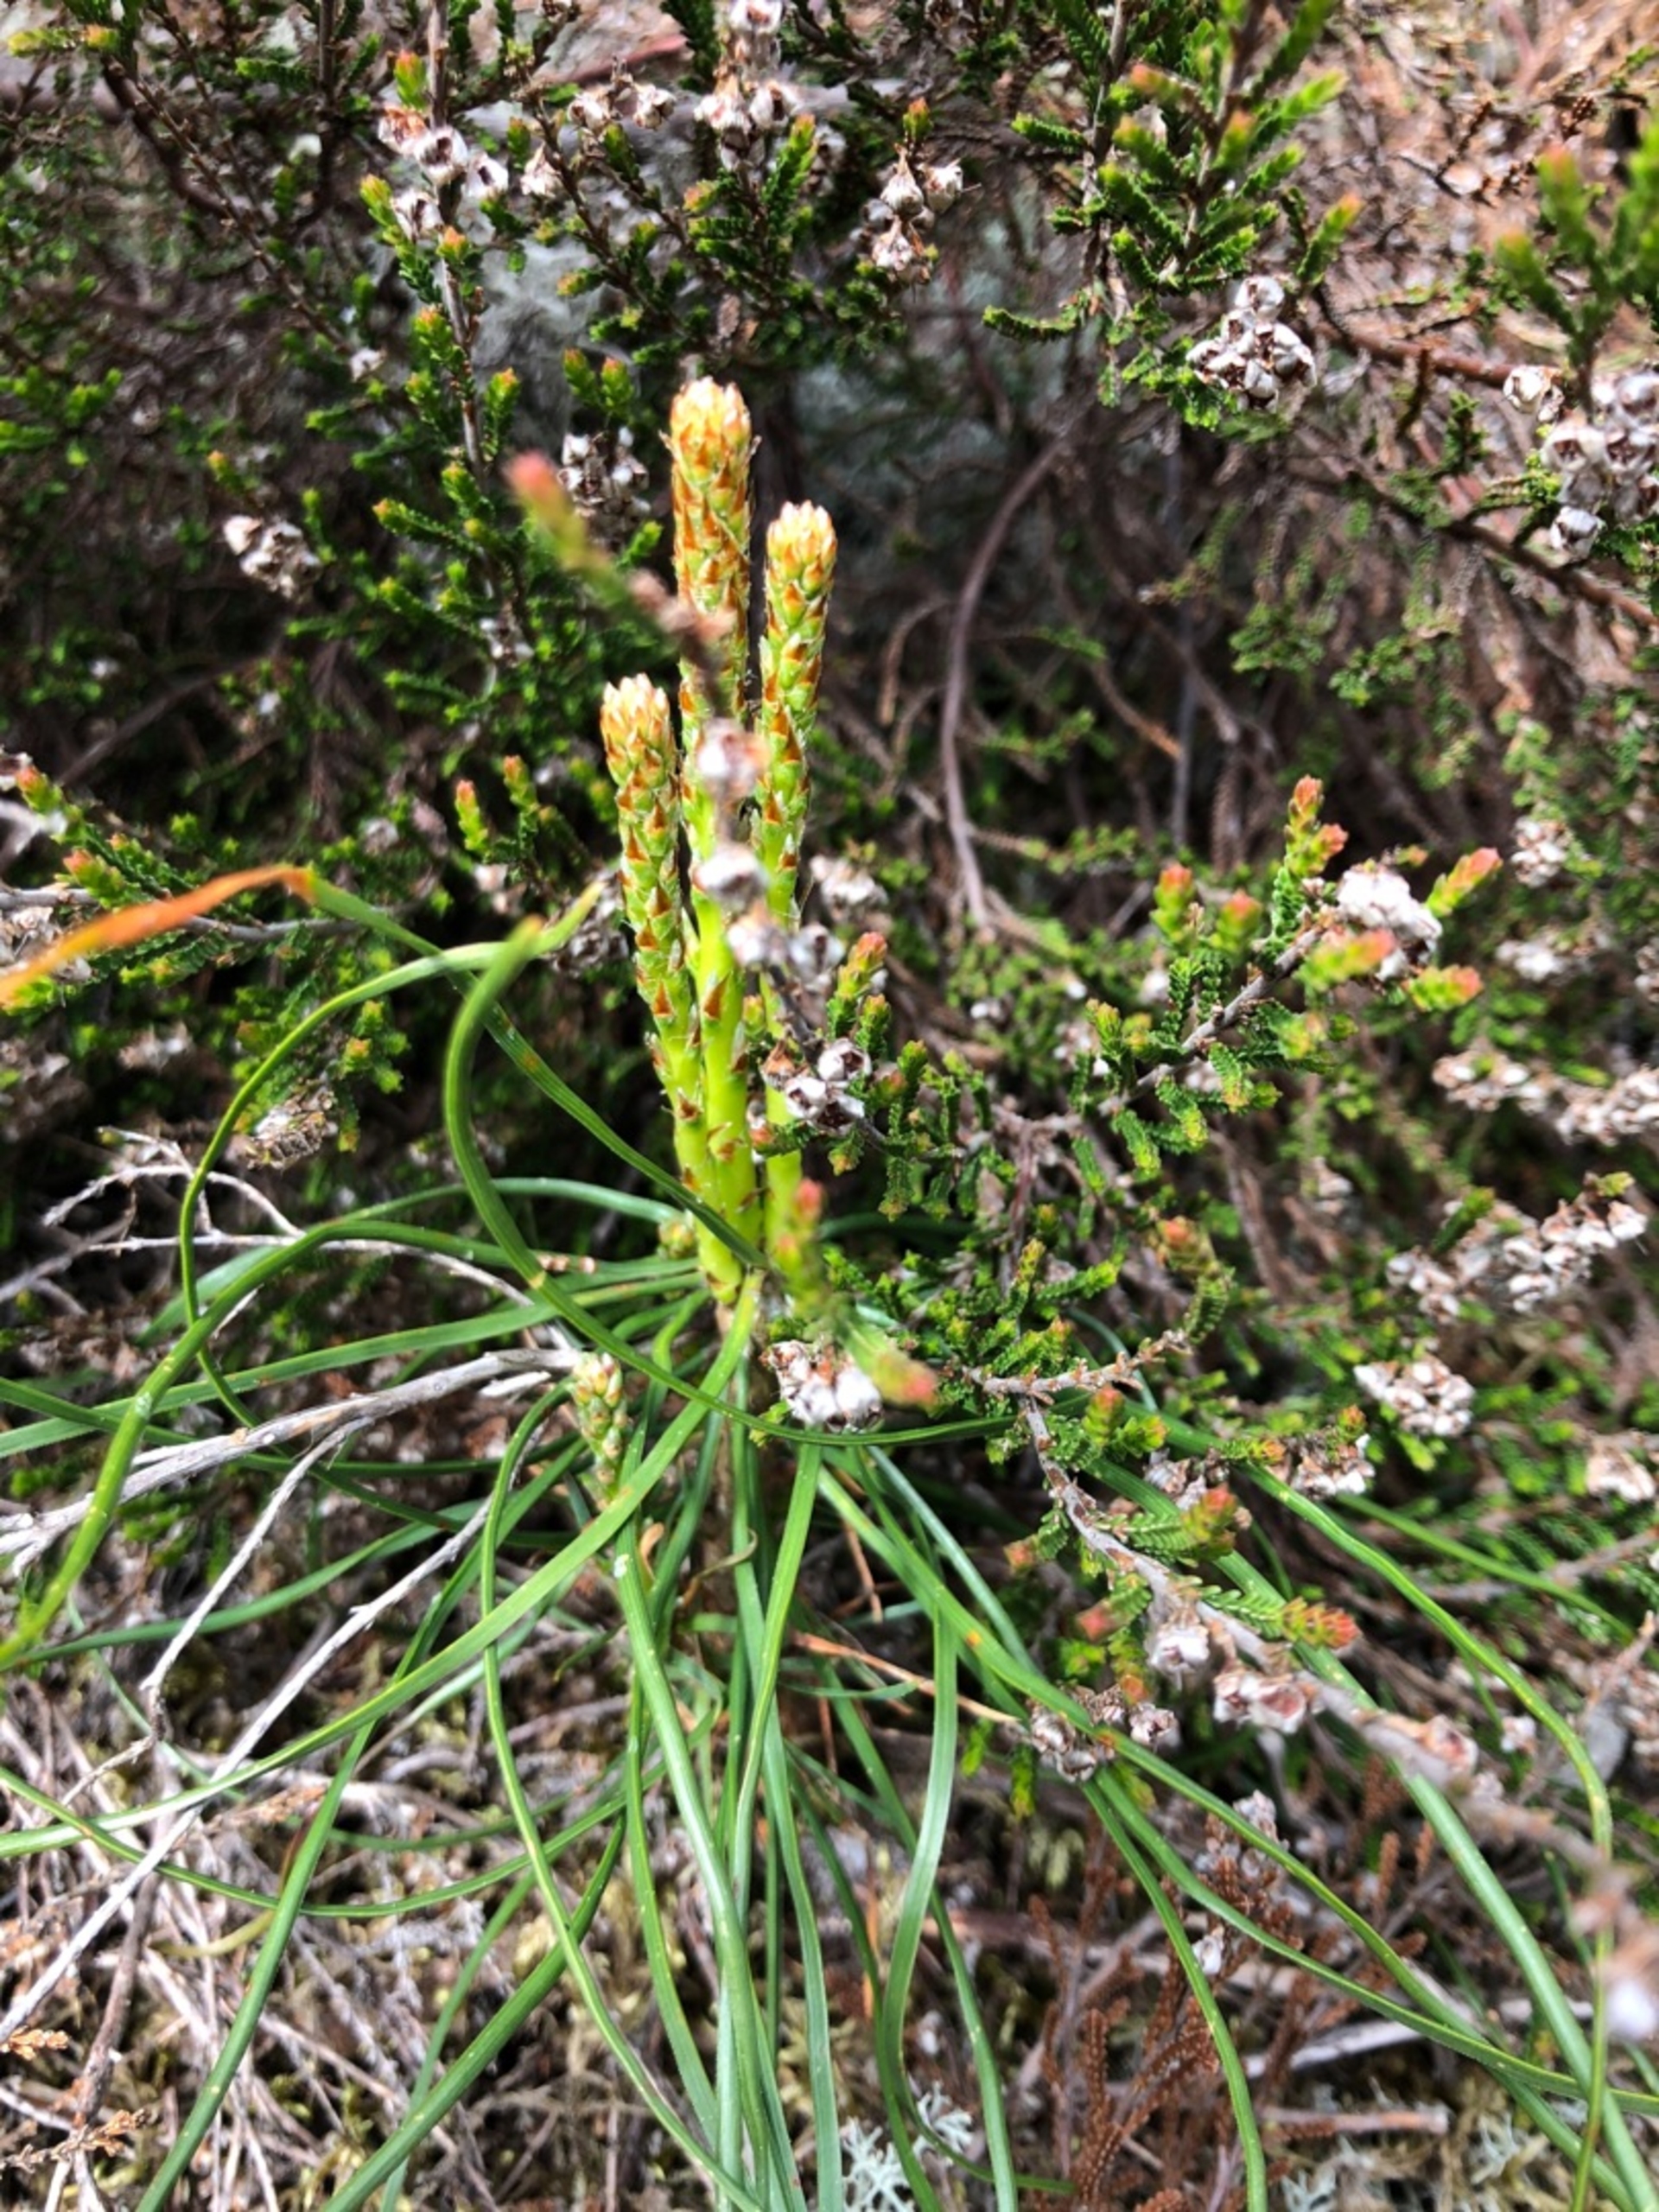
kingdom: Plantae
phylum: Tracheophyta
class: Pinopsida
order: Pinales
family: Pinaceae
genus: Pinus
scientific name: Pinus
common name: Fyrreslægten
